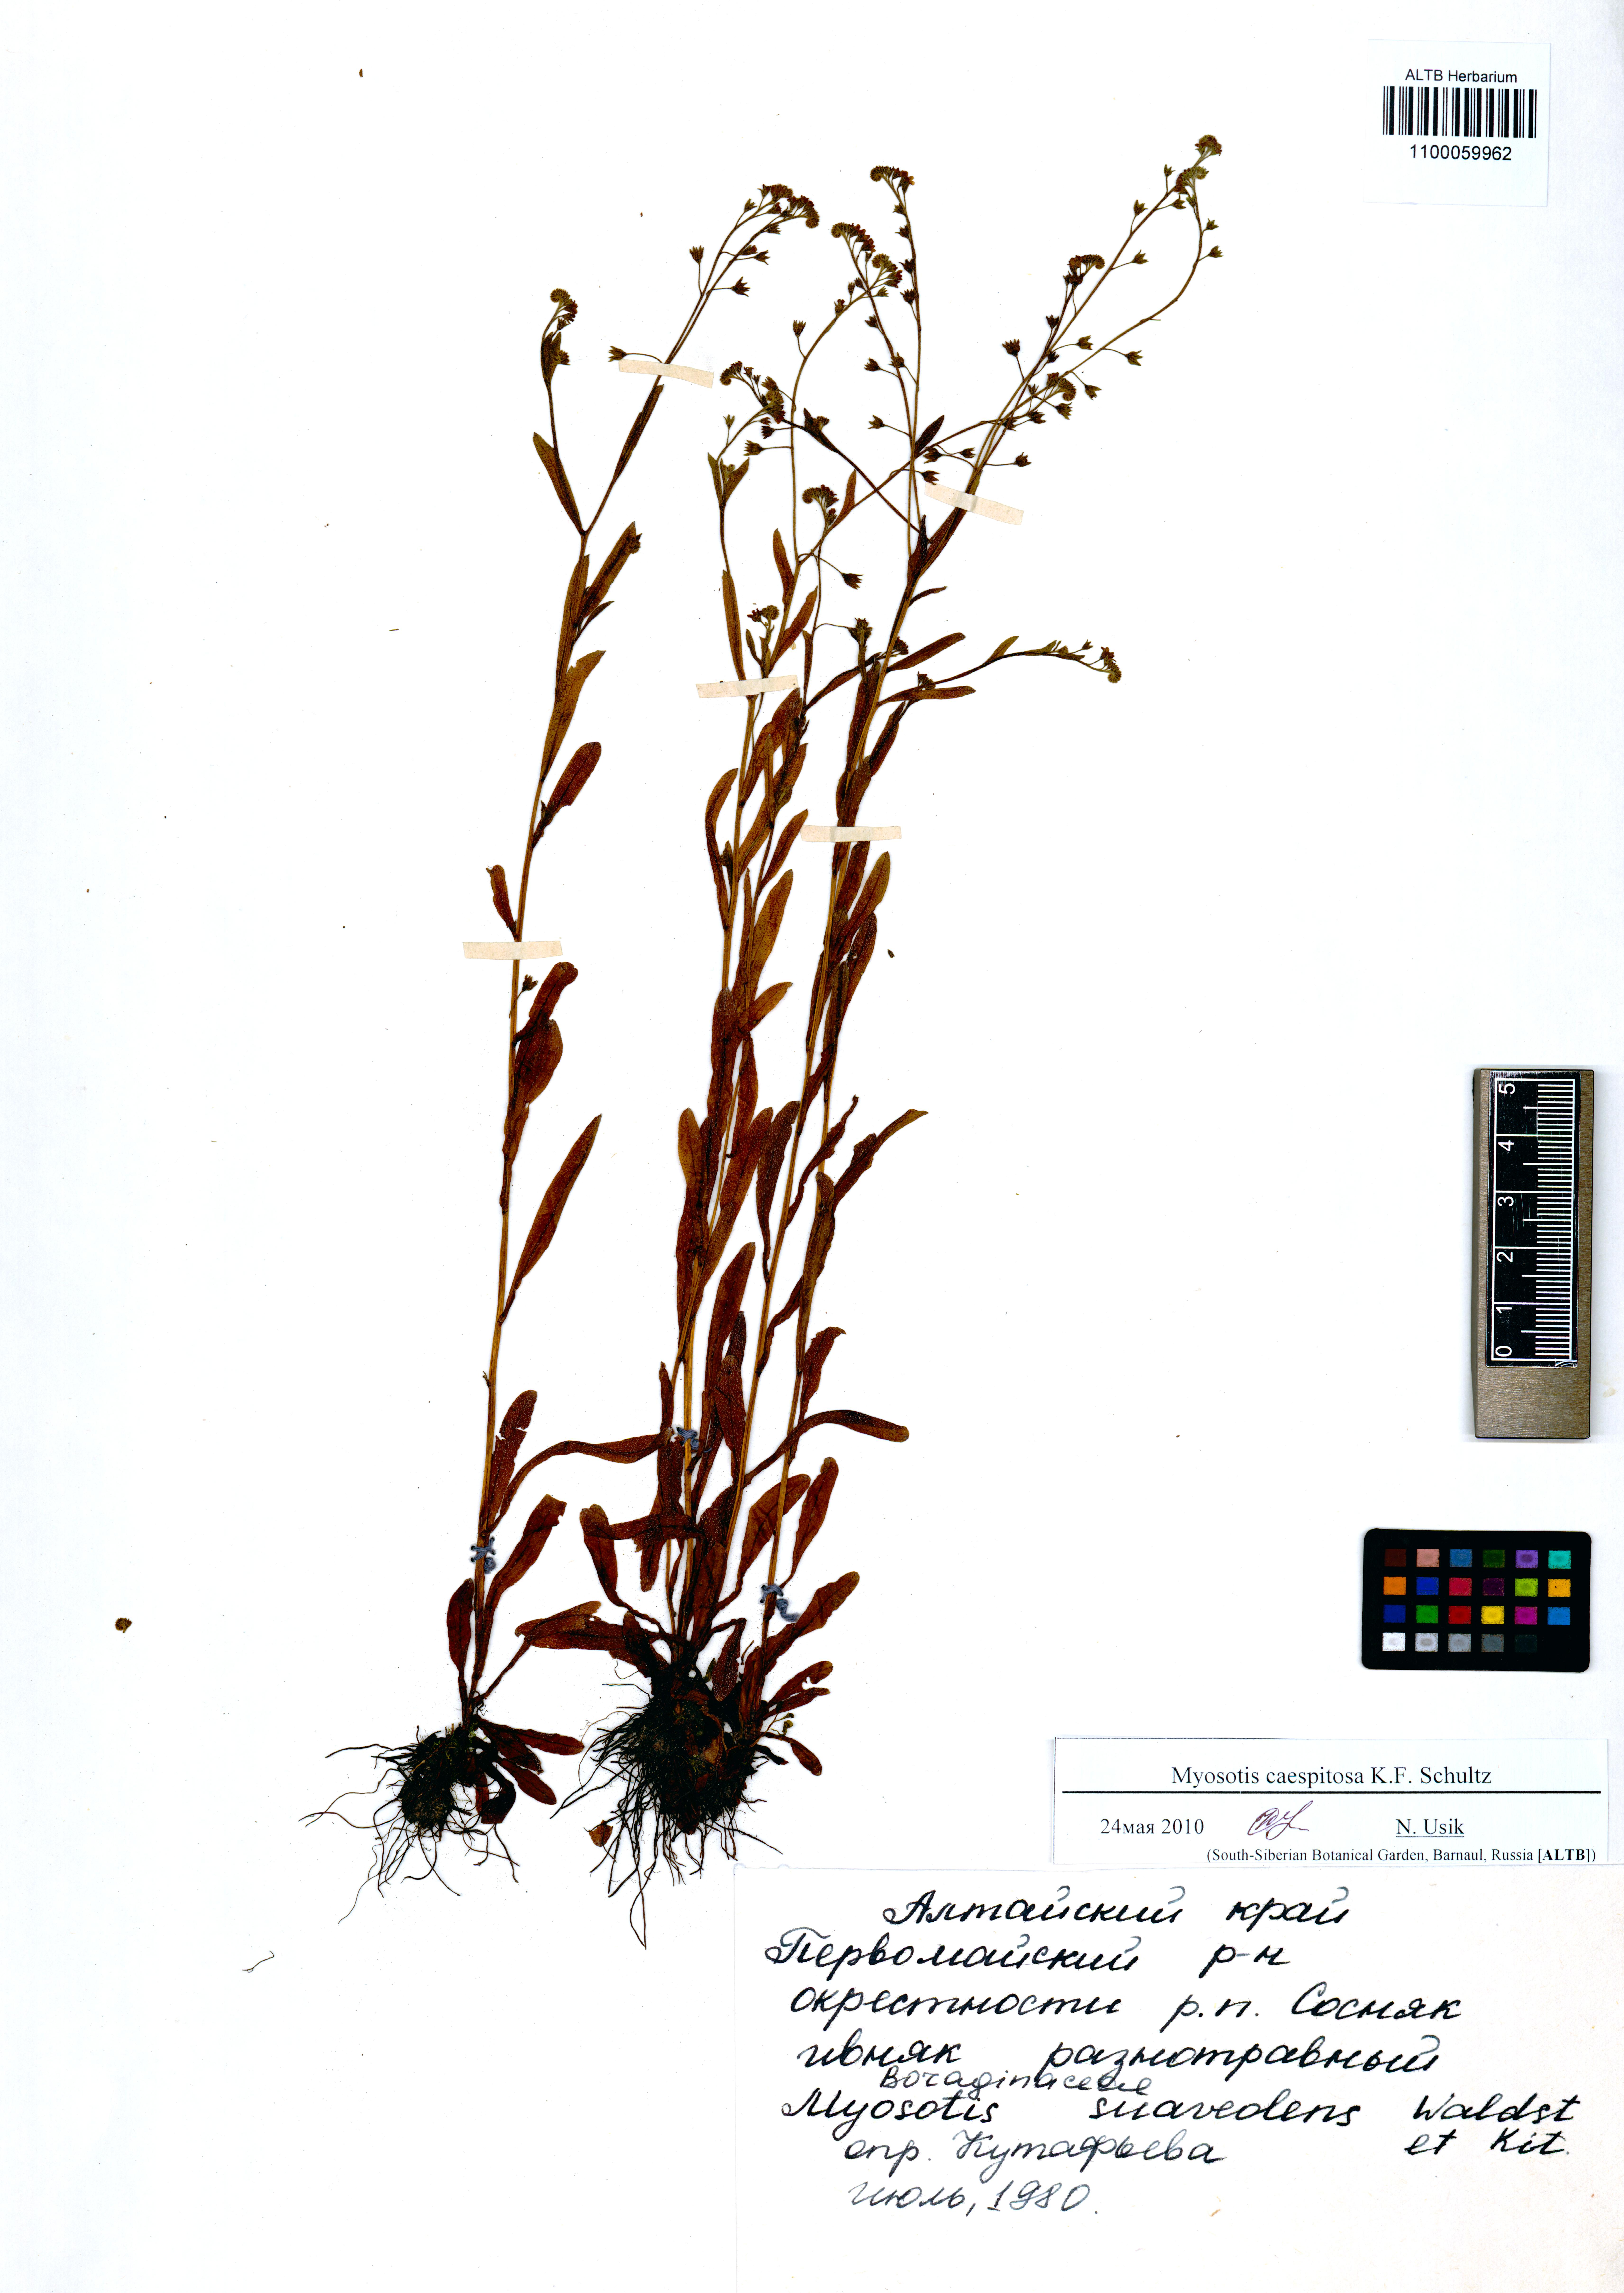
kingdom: Plantae
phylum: Tracheophyta
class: Magnoliopsida
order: Boraginales
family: Boraginaceae
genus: Myosotis
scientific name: Myosotis laxa
